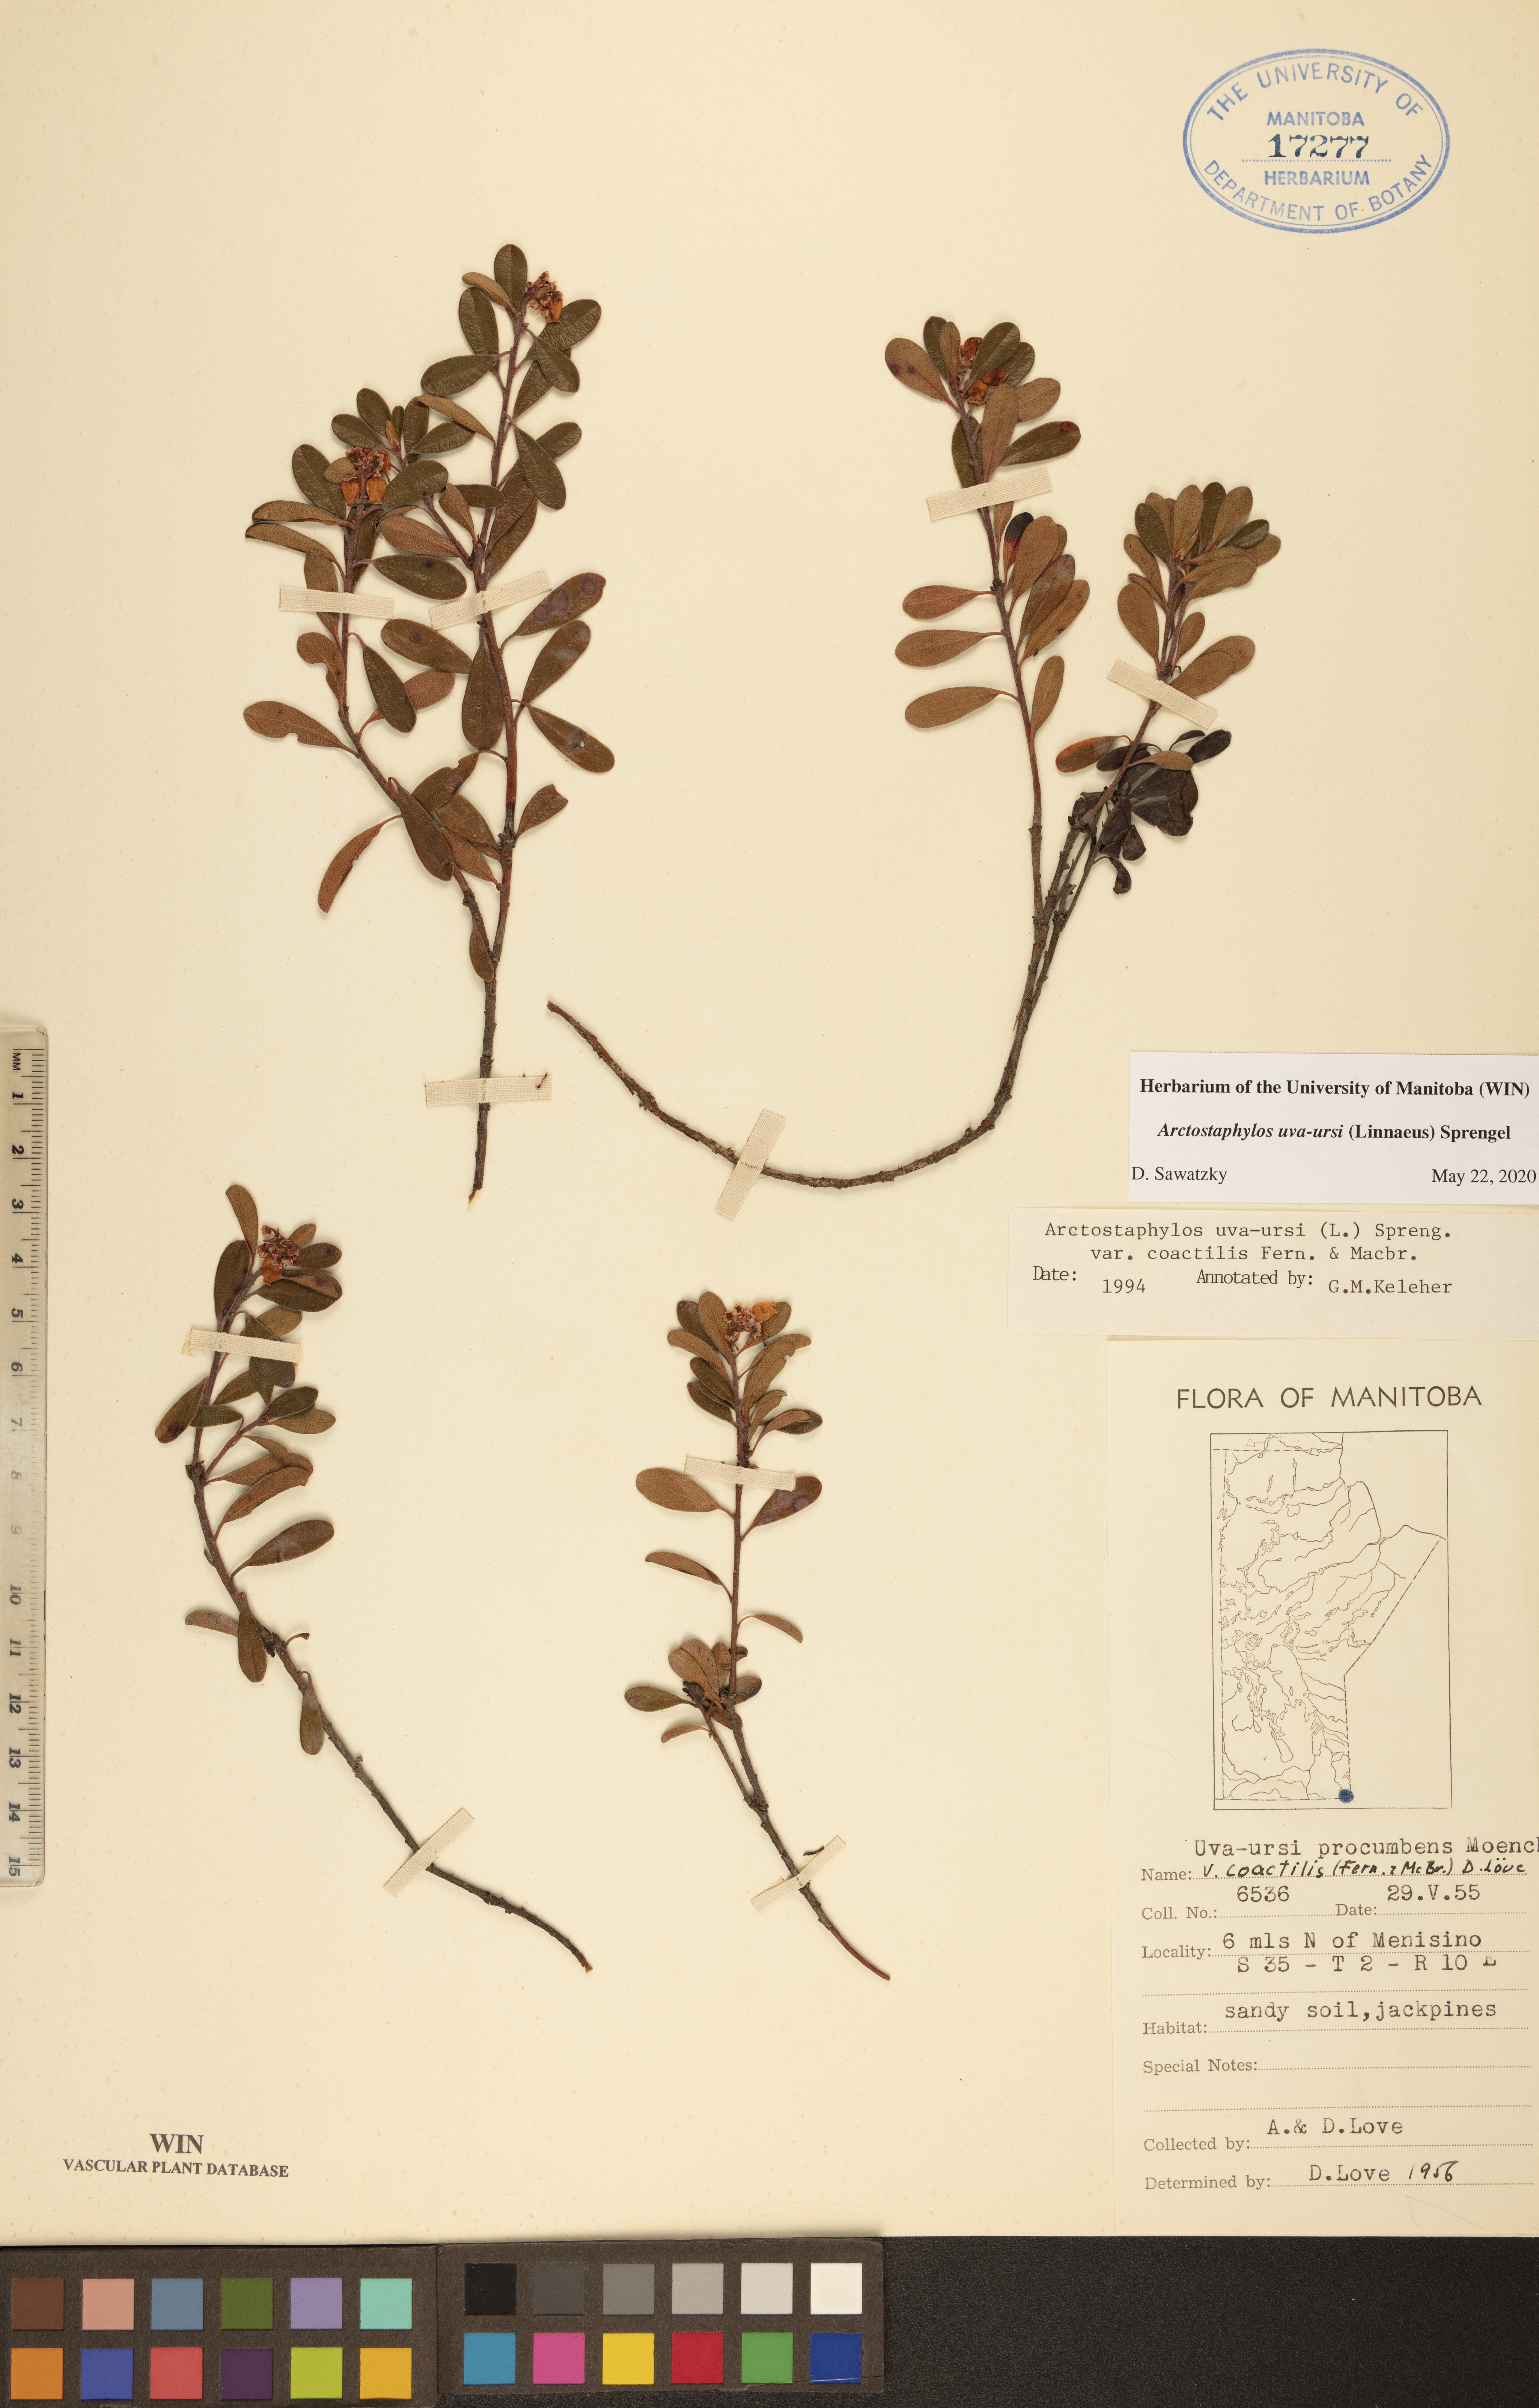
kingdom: Plantae
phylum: Tracheophyta
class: Magnoliopsida
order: Ericales
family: Ericaceae
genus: Arctostaphylos
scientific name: Arctostaphylos uva-ursi
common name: Bearberry
